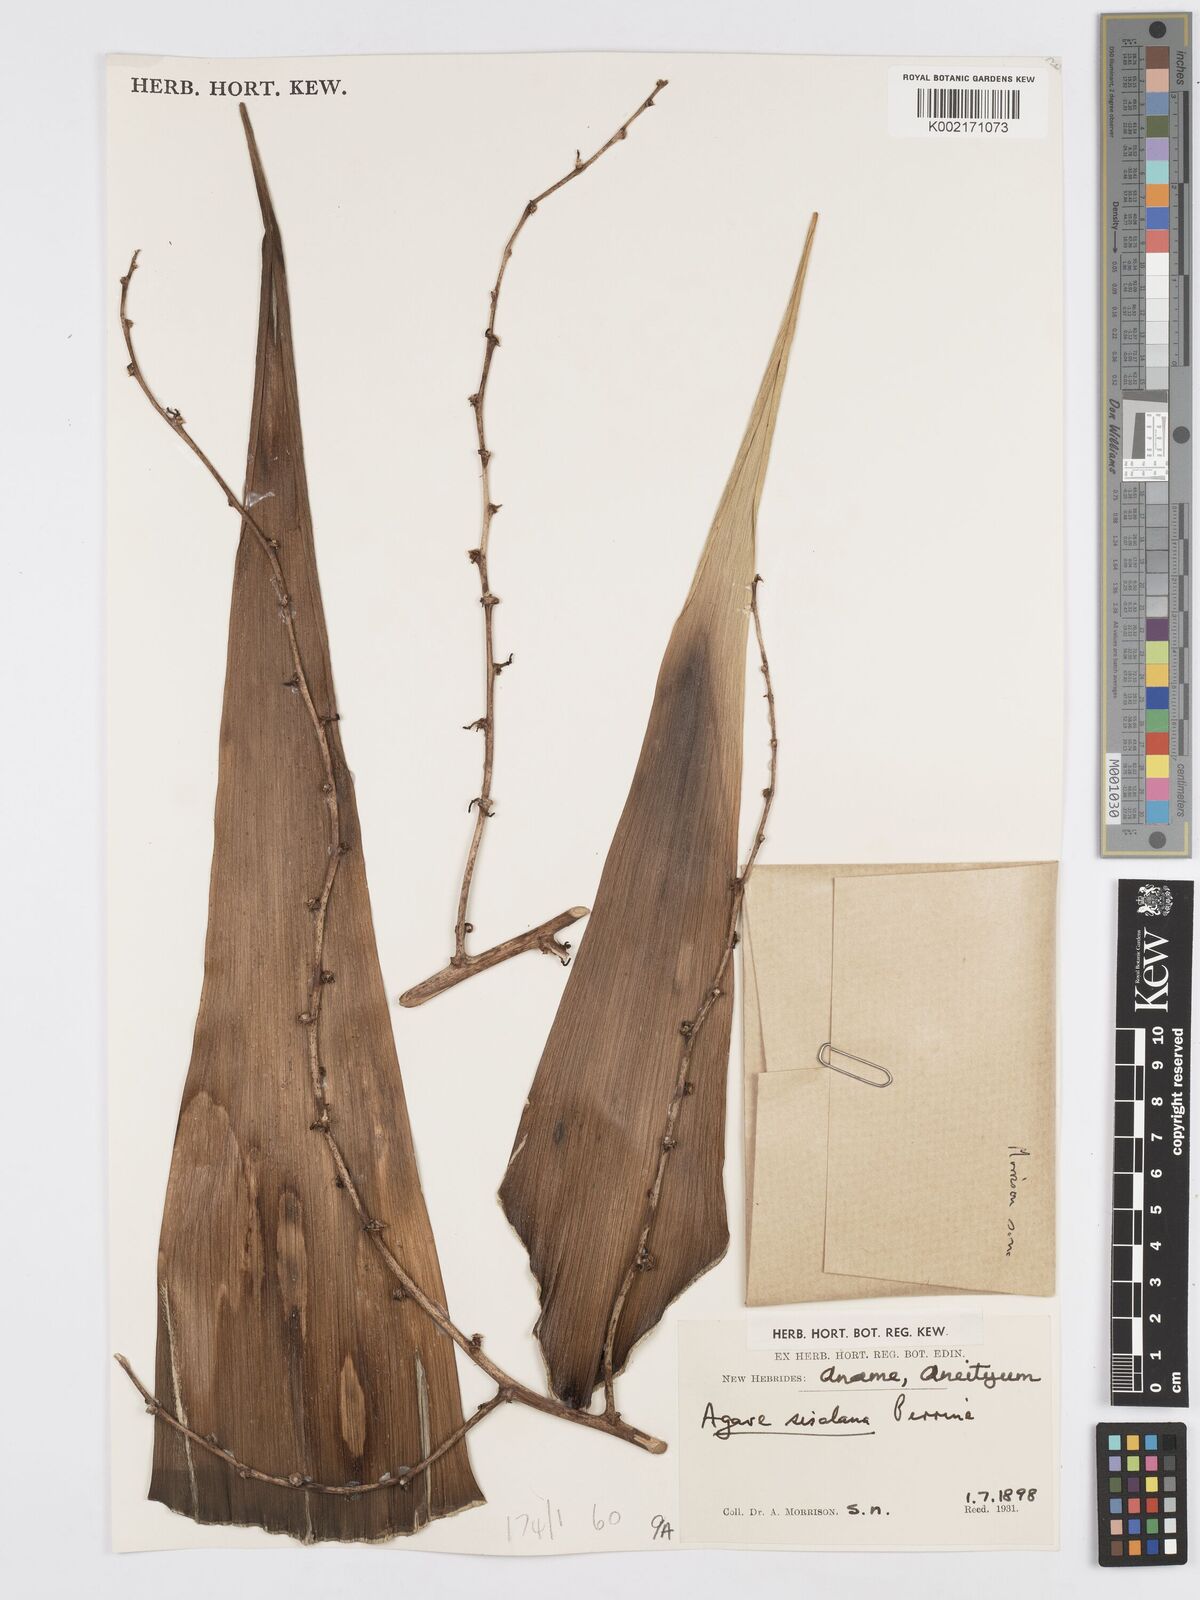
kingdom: Plantae
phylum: Tracheophyta
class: Liliopsida
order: Asparagales
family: Asparagaceae
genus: Agave
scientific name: Agave sisalana
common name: Sisal hemp
